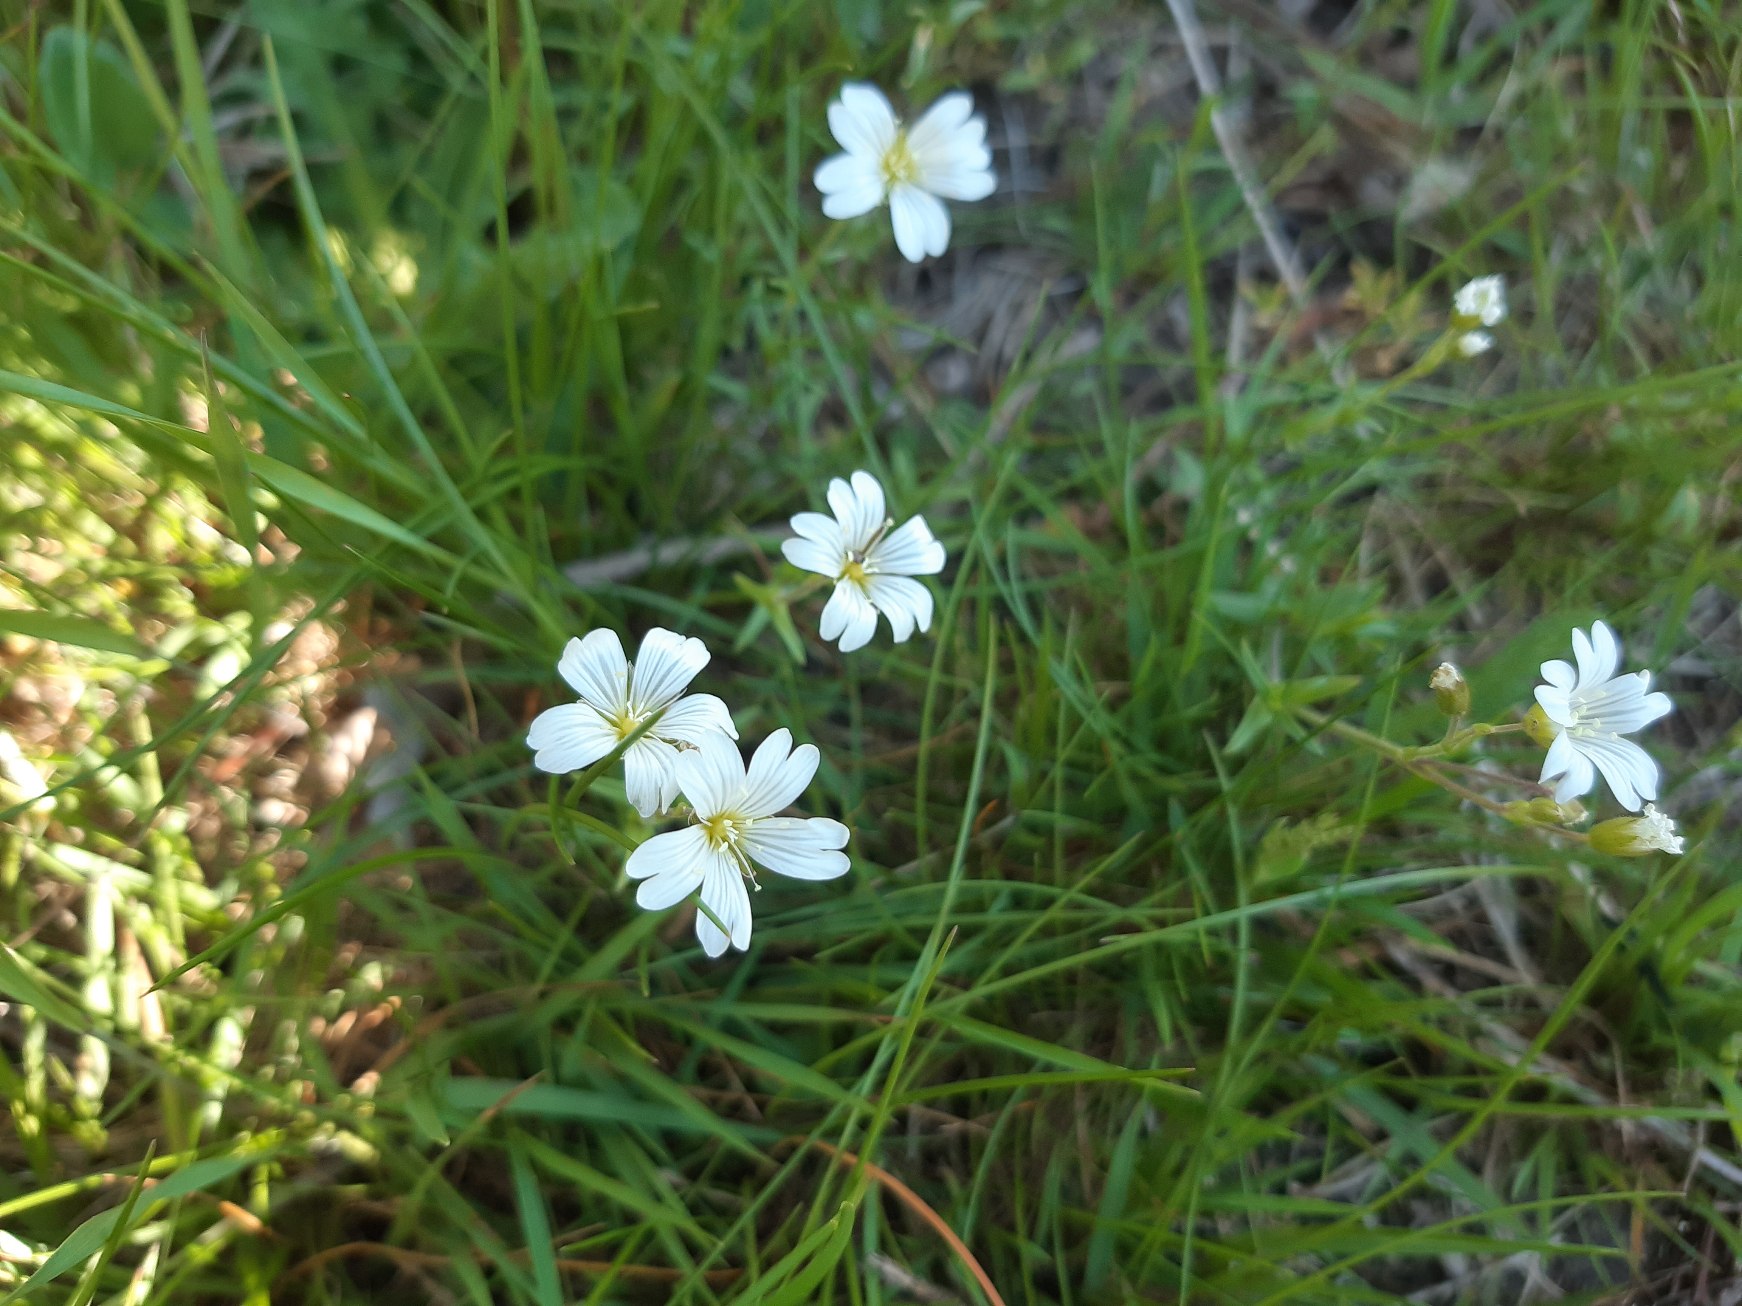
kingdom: Plantae
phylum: Tracheophyta
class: Magnoliopsida
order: Caryophyllales
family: Caryophyllaceae
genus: Cerastium
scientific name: Cerastium arvense
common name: Storblomstret hønsetarm
